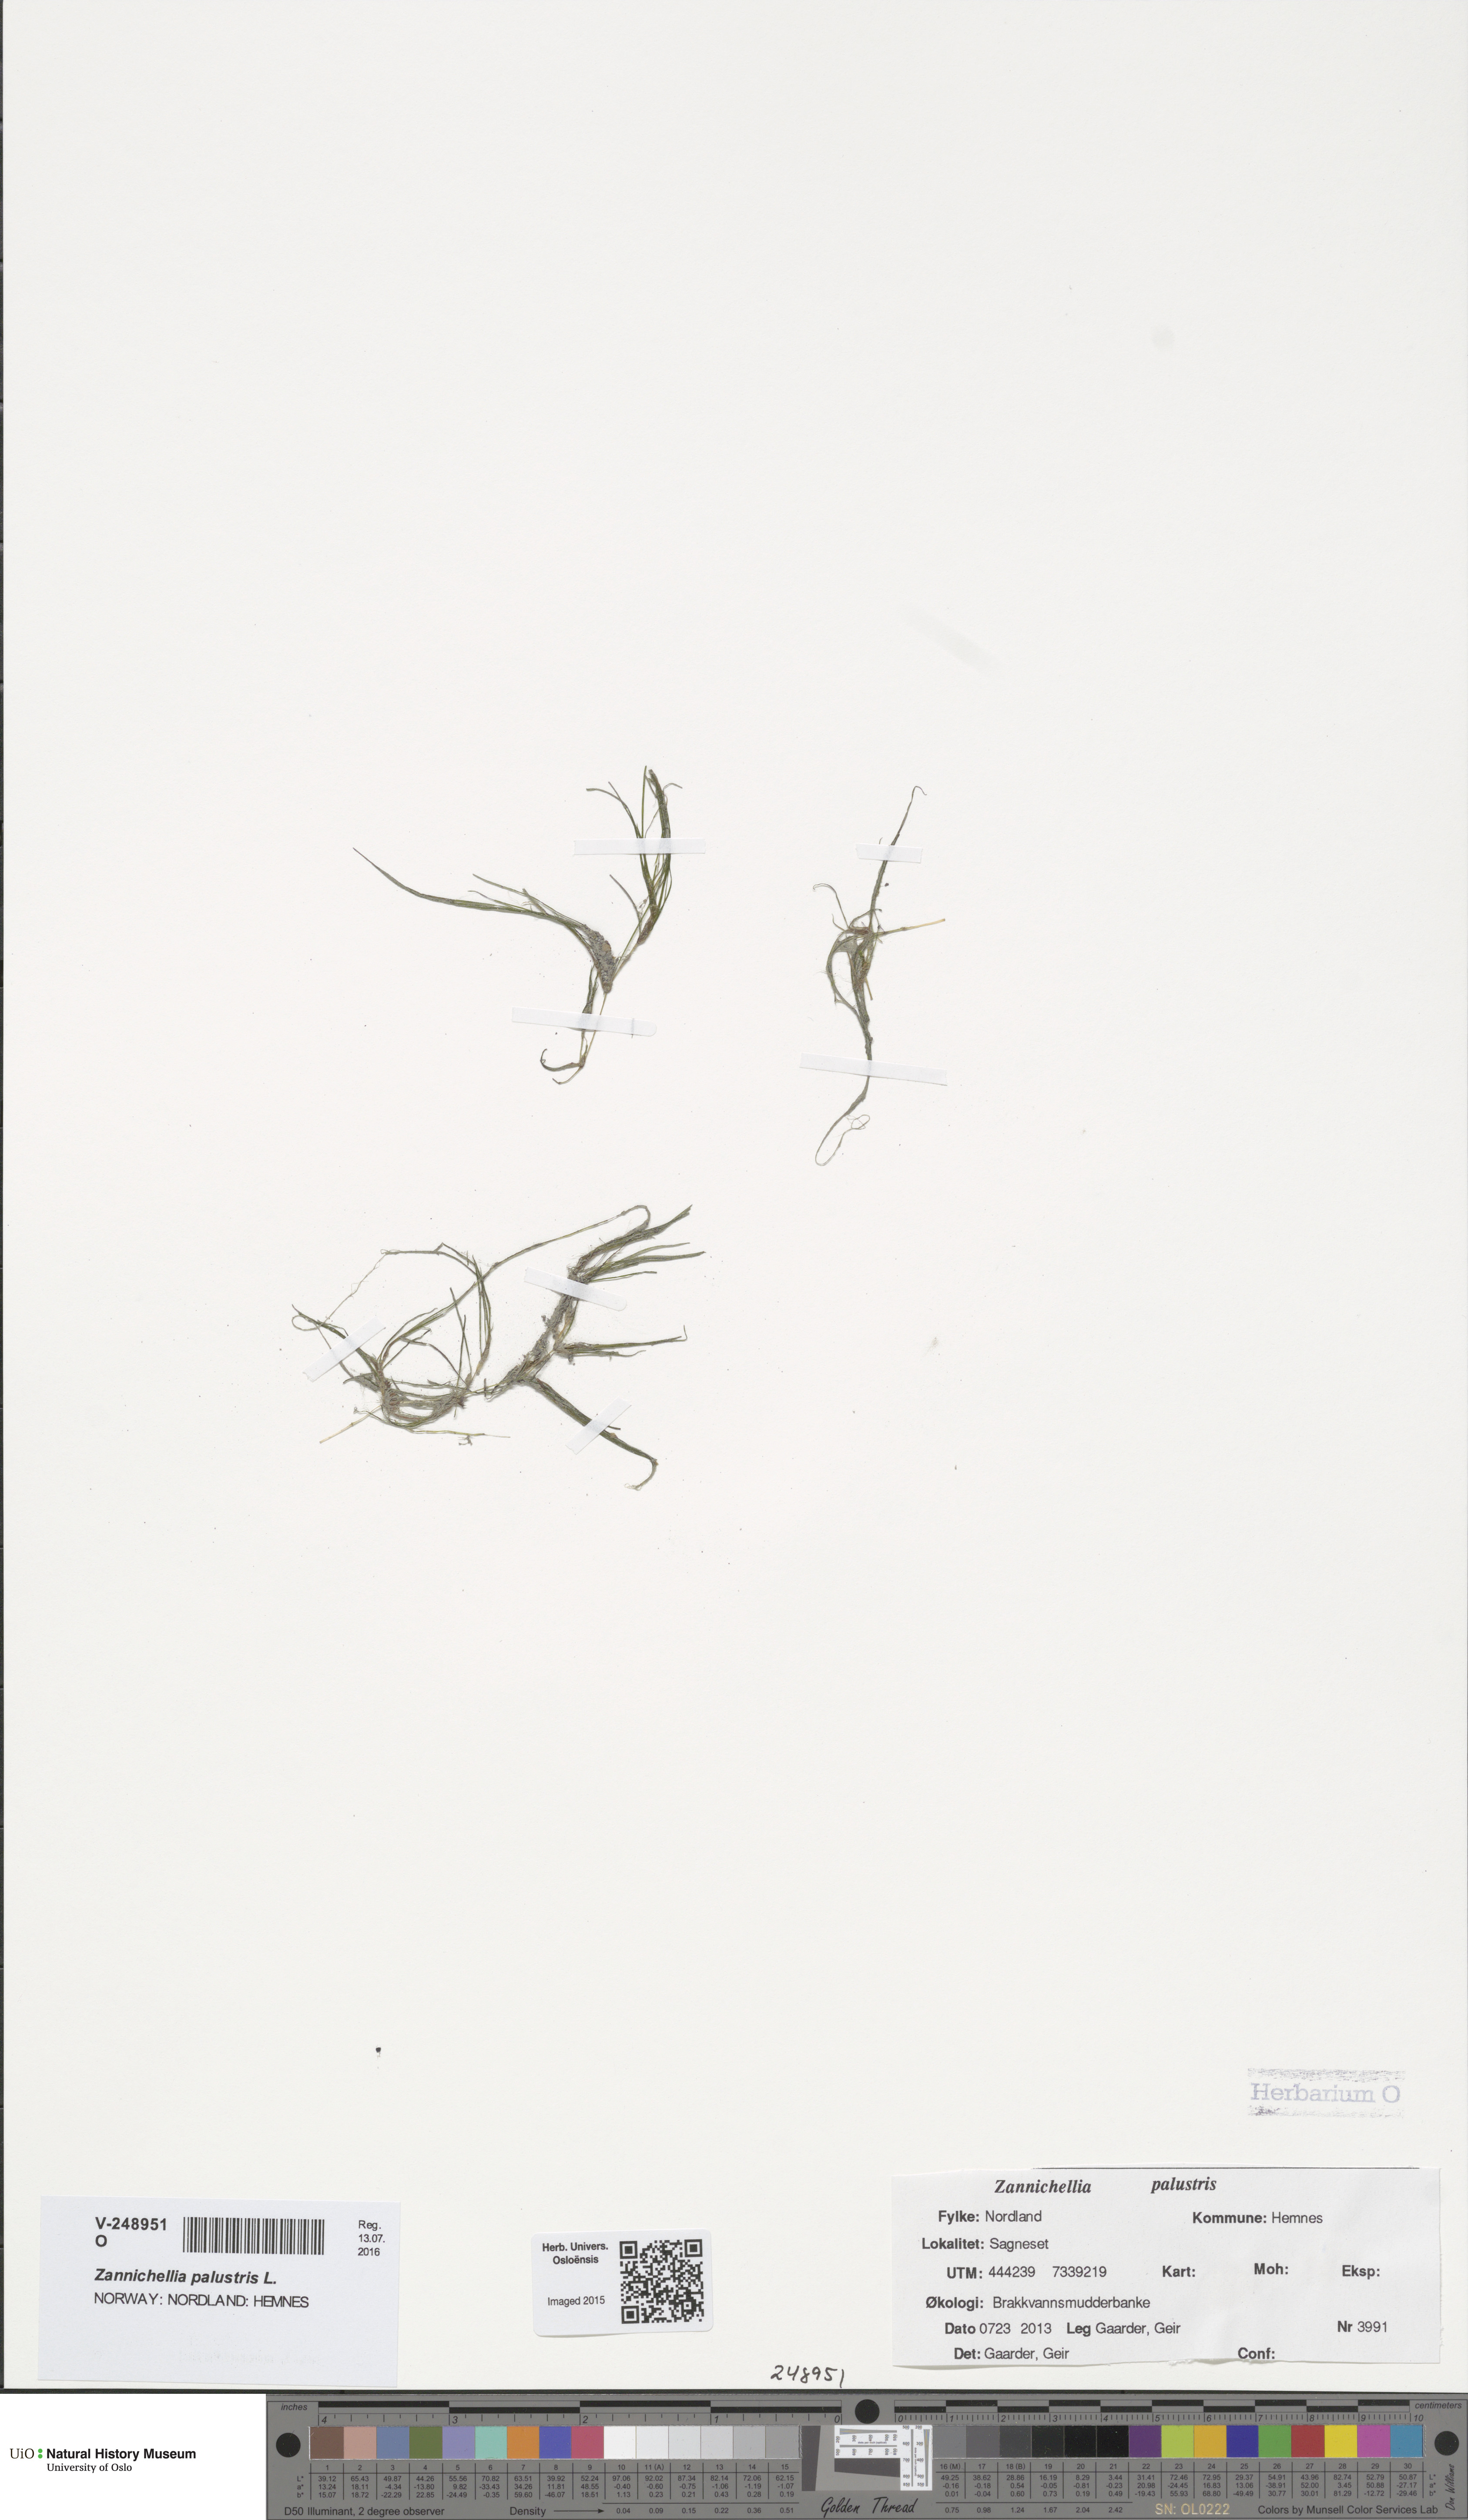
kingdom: Plantae
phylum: Tracheophyta
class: Liliopsida
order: Alismatales
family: Potamogetonaceae
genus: Zannichellia
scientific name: Zannichellia palustris
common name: Horned pondweed
